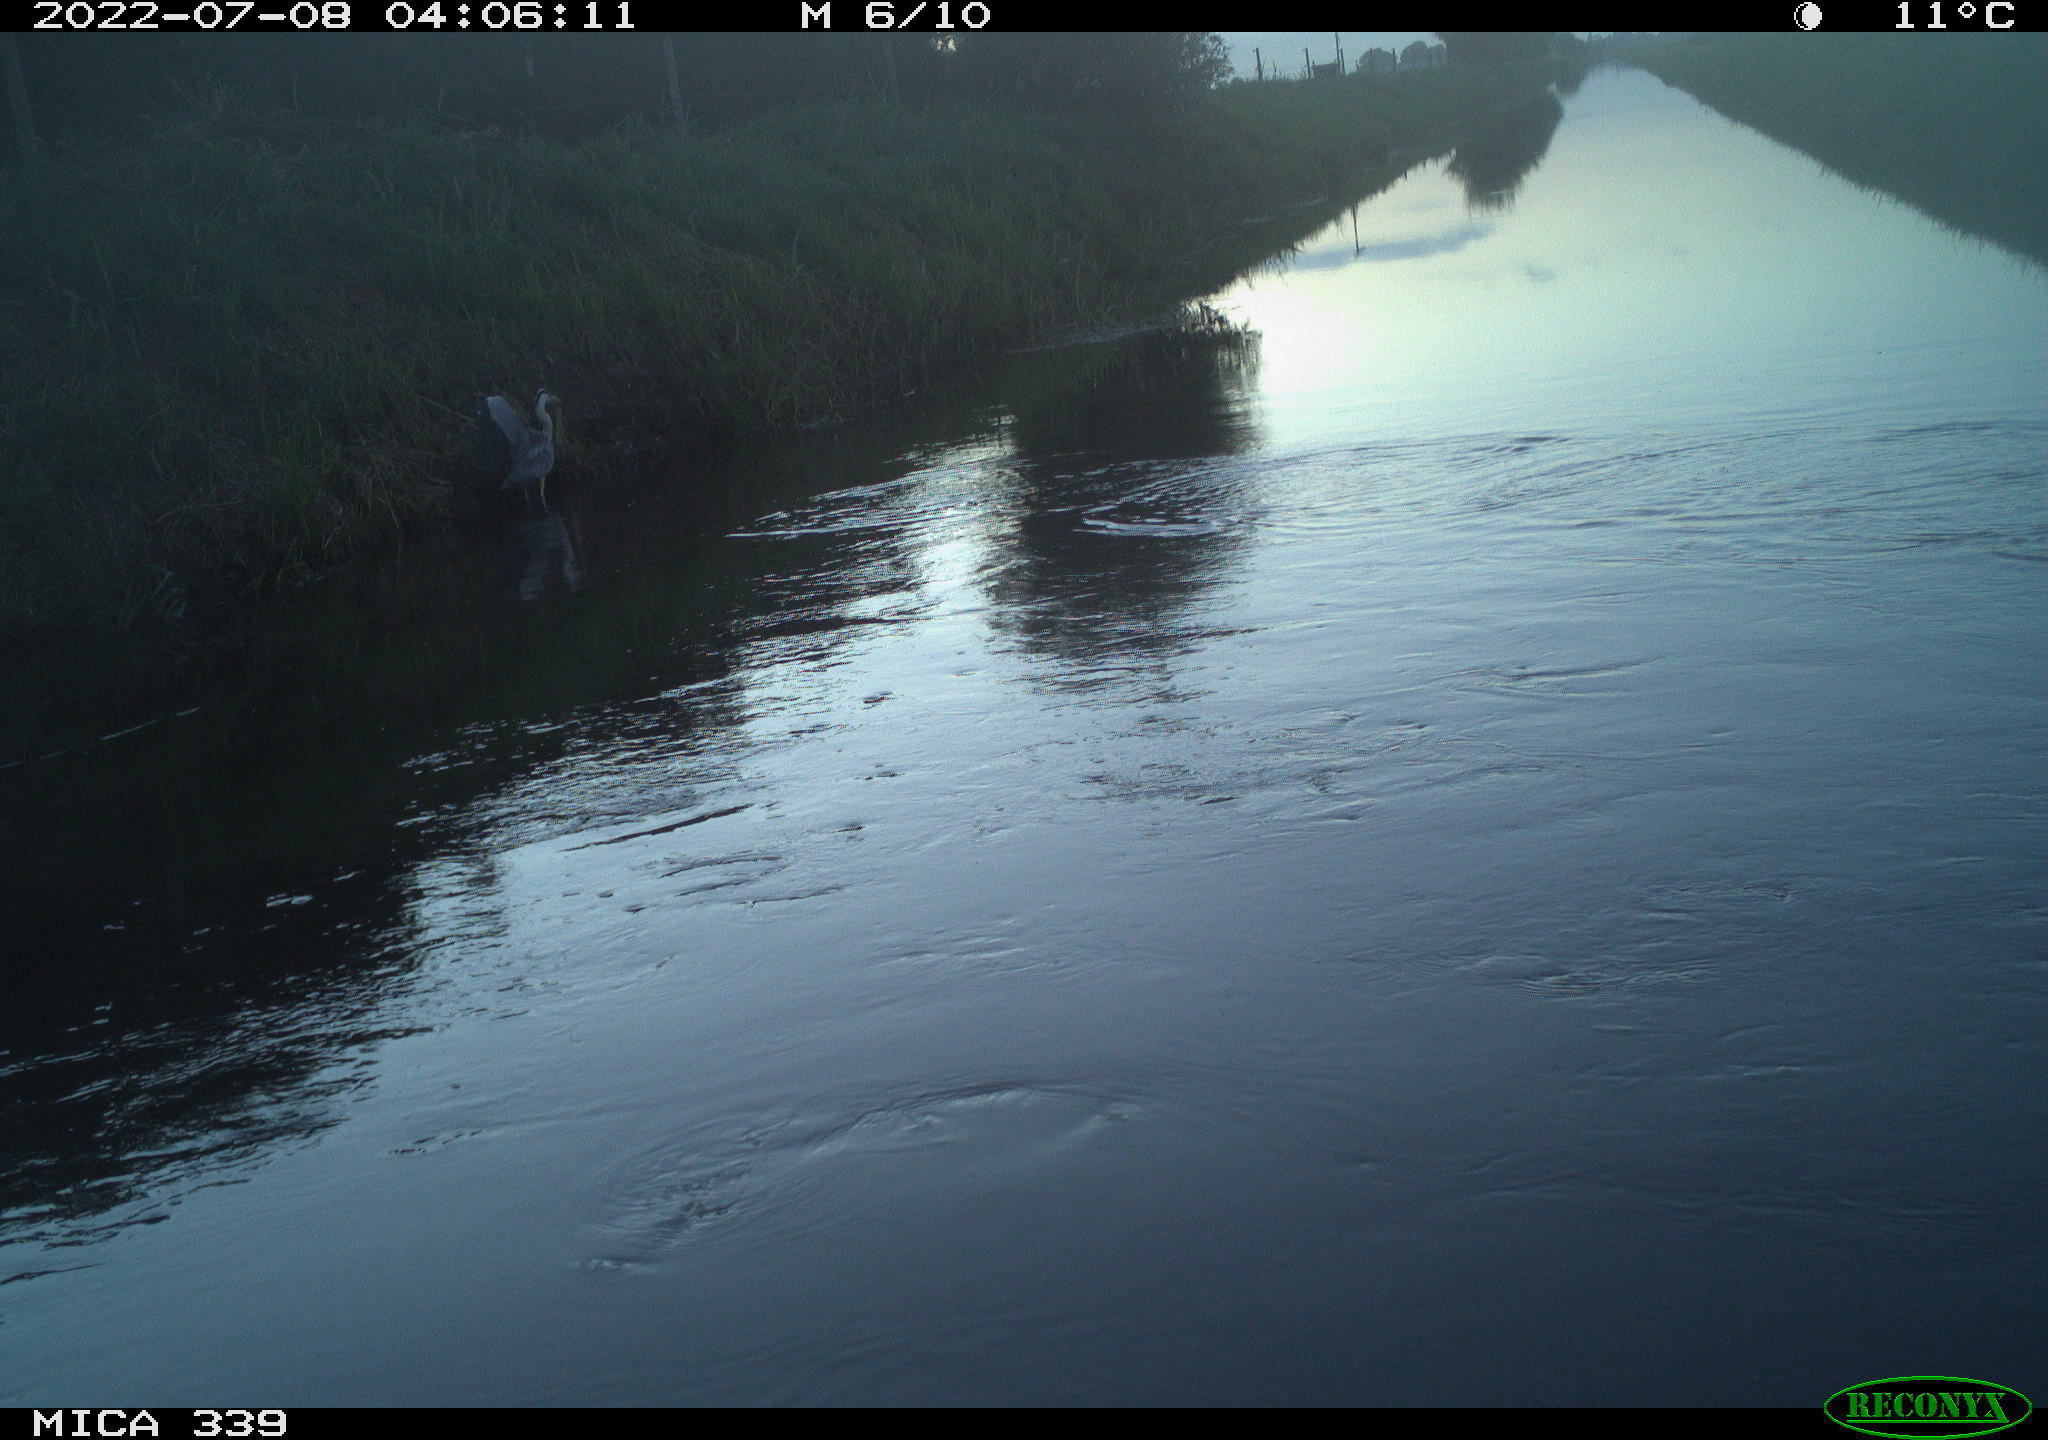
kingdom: Animalia
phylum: Chordata
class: Aves
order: Pelecaniformes
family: Ardeidae
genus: Ardea
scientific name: Ardea cinerea
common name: Grey heron
